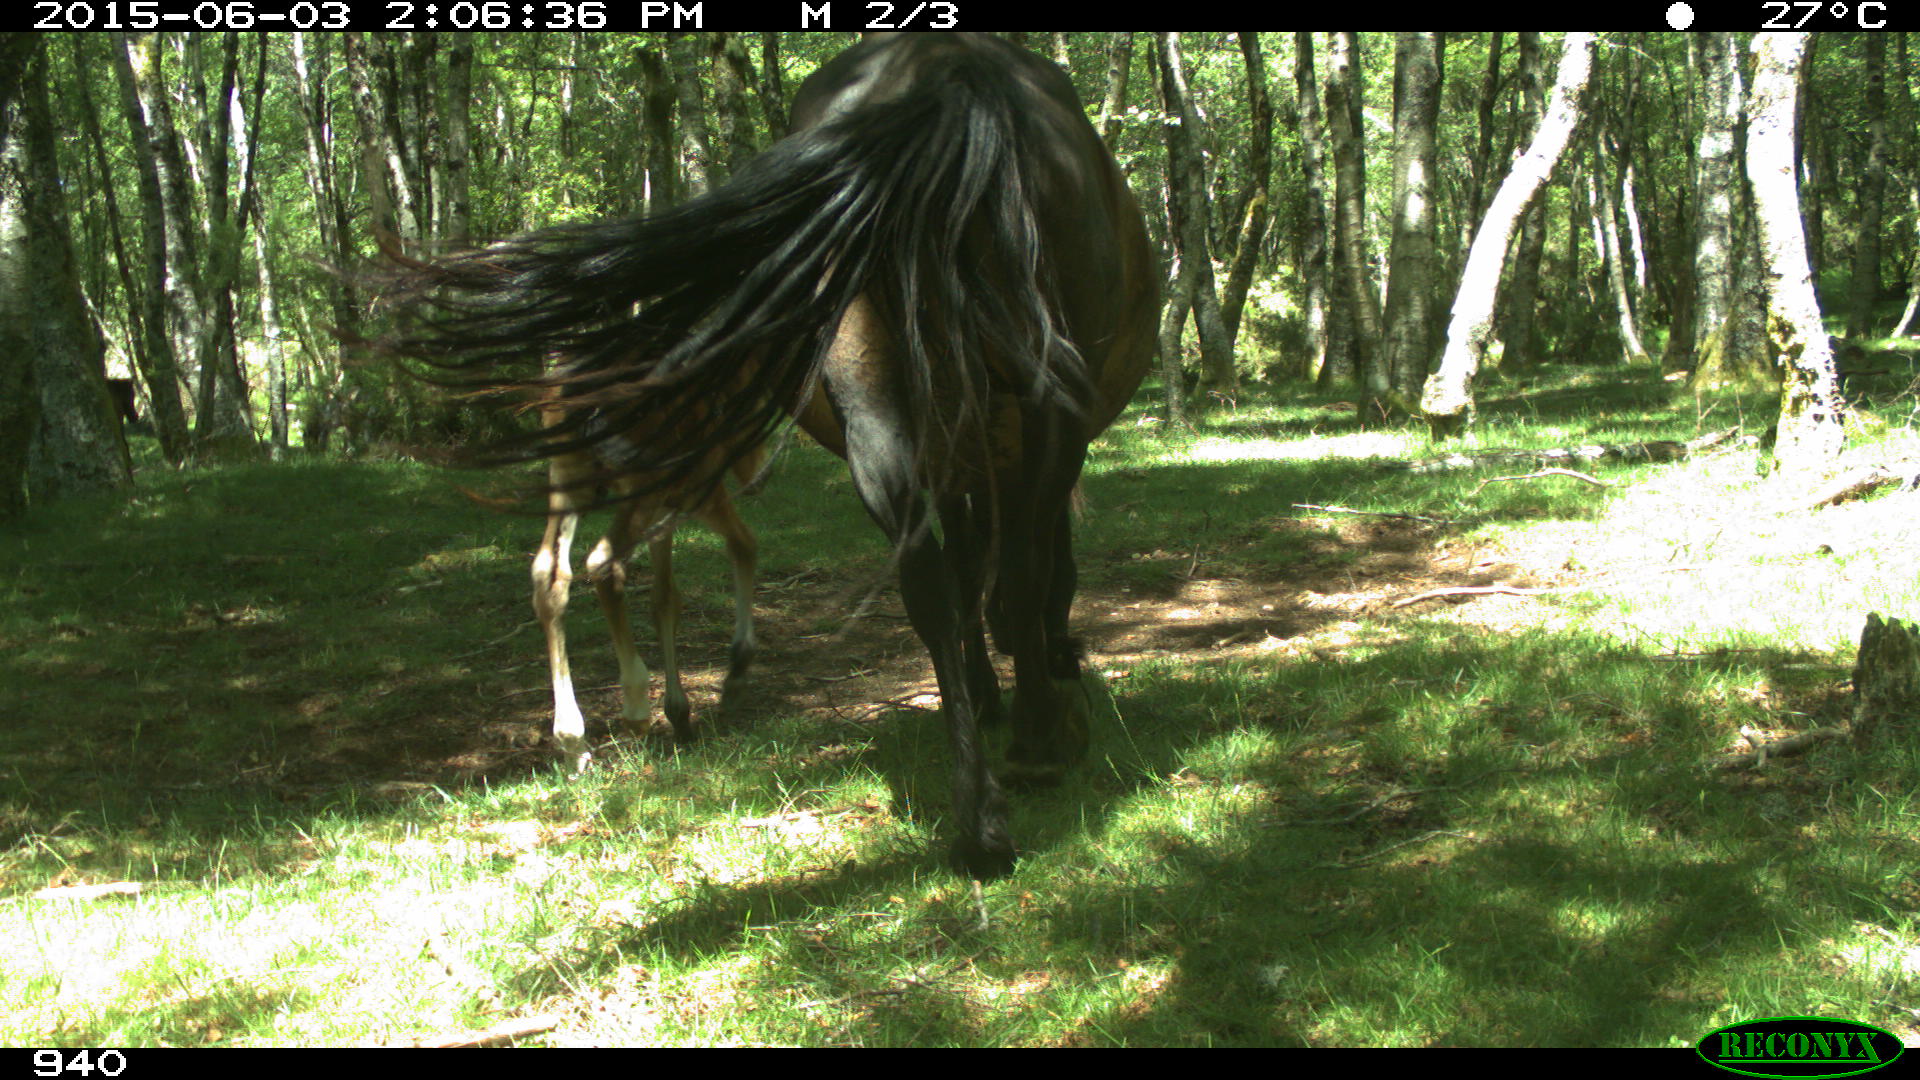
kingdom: Animalia
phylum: Chordata
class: Mammalia
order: Perissodactyla
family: Equidae
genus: Equus
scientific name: Equus caballus
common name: Horse
